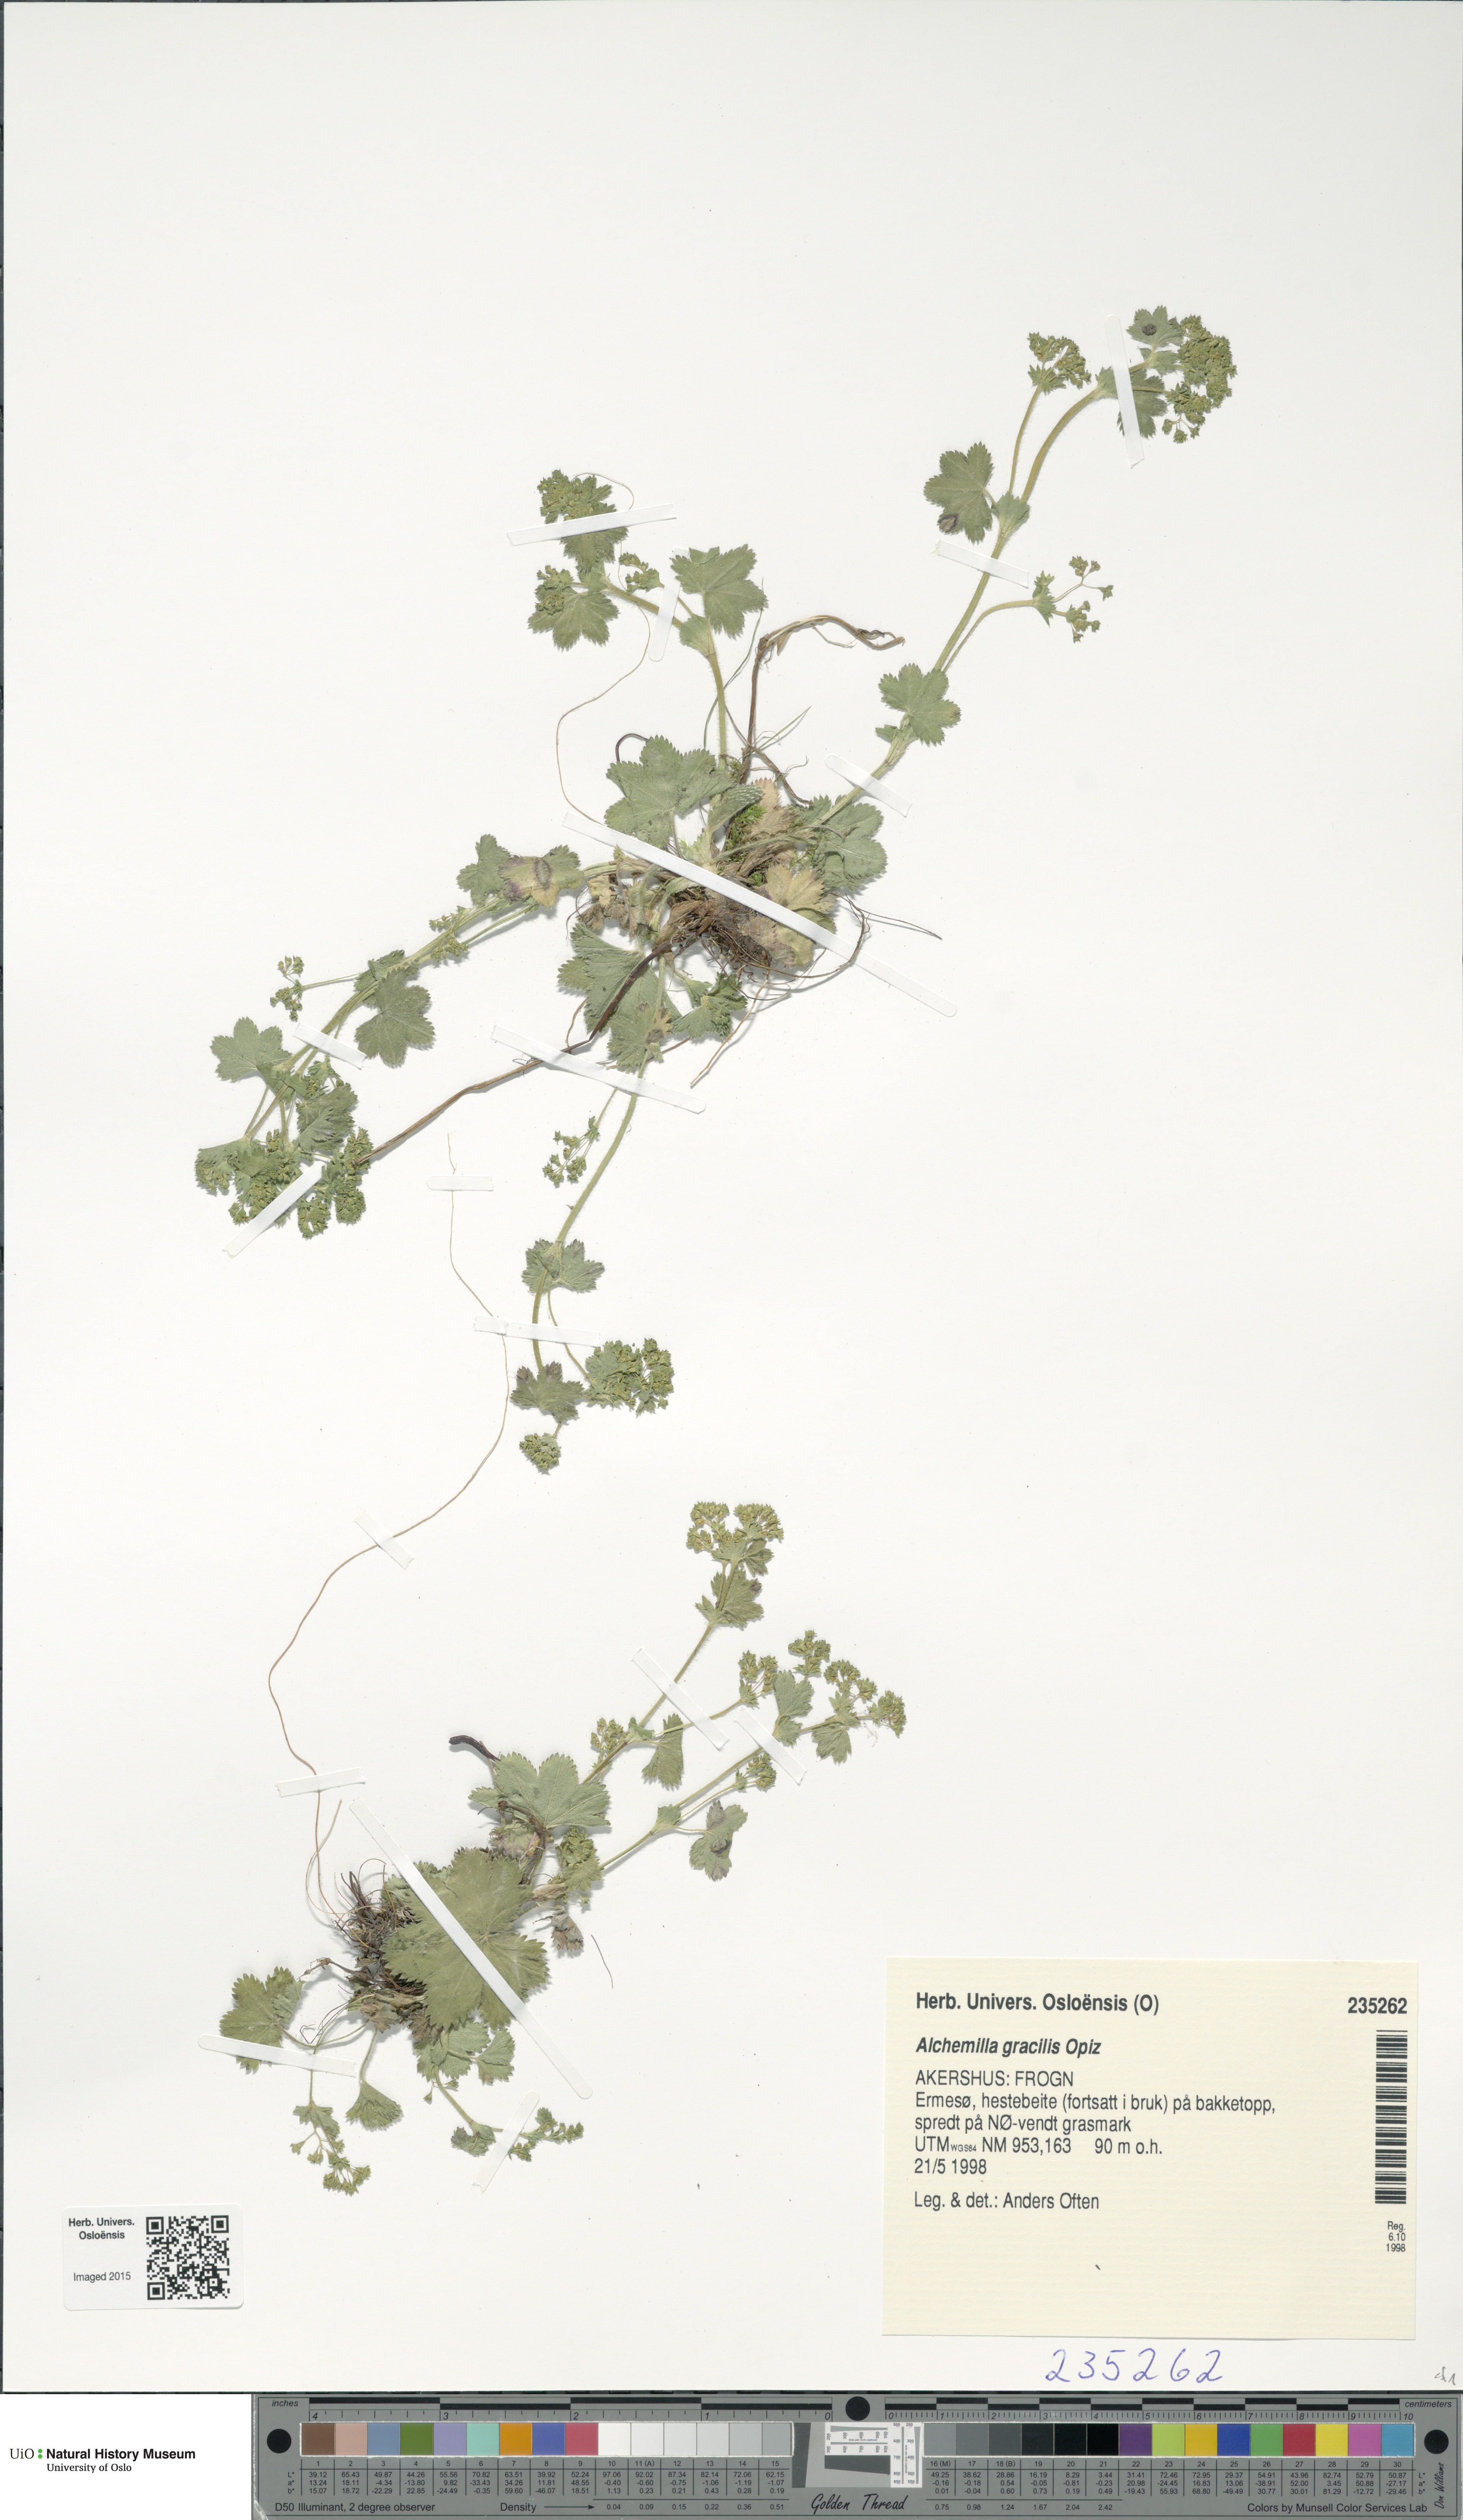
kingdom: Plantae
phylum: Tracheophyta
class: Magnoliopsida
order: Rosales
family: Rosaceae
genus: Alchemilla
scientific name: Alchemilla micans
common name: Gleaming lady's mantle
